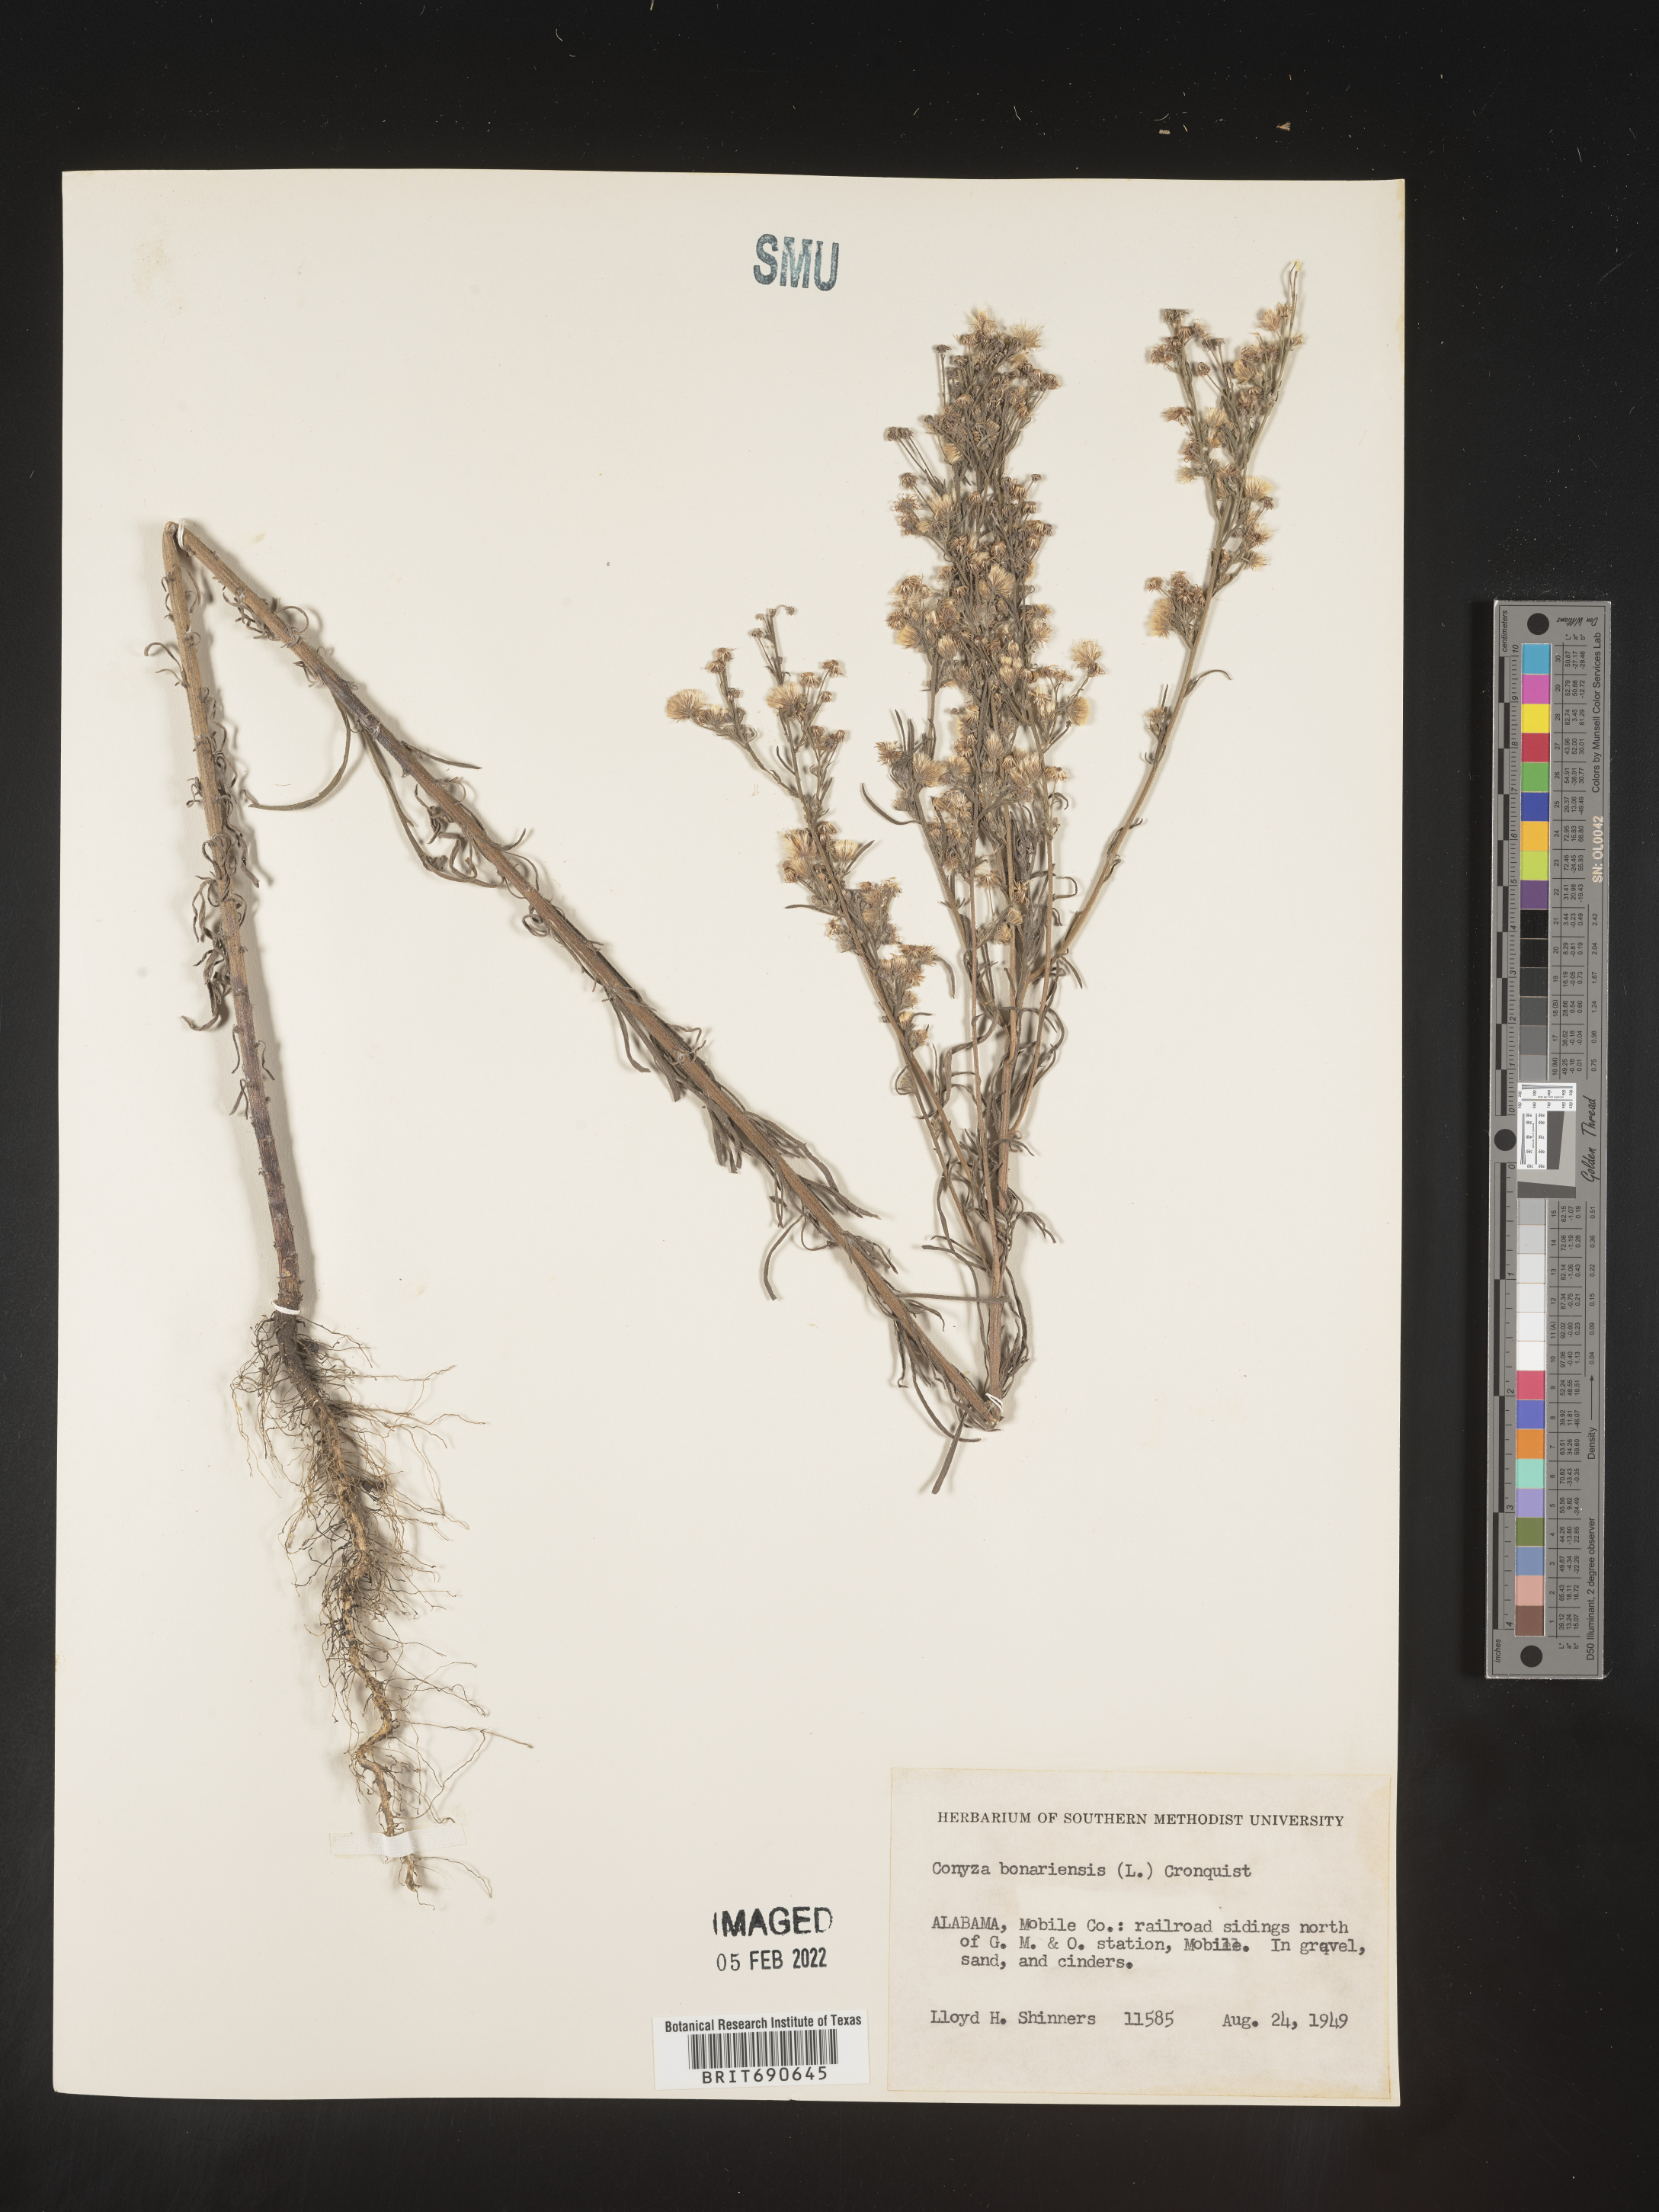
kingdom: Plantae
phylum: Tracheophyta
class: Magnoliopsida
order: Asterales
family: Asteraceae
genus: Erigeron
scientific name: Erigeron bonariensis
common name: Argentine fleabane
